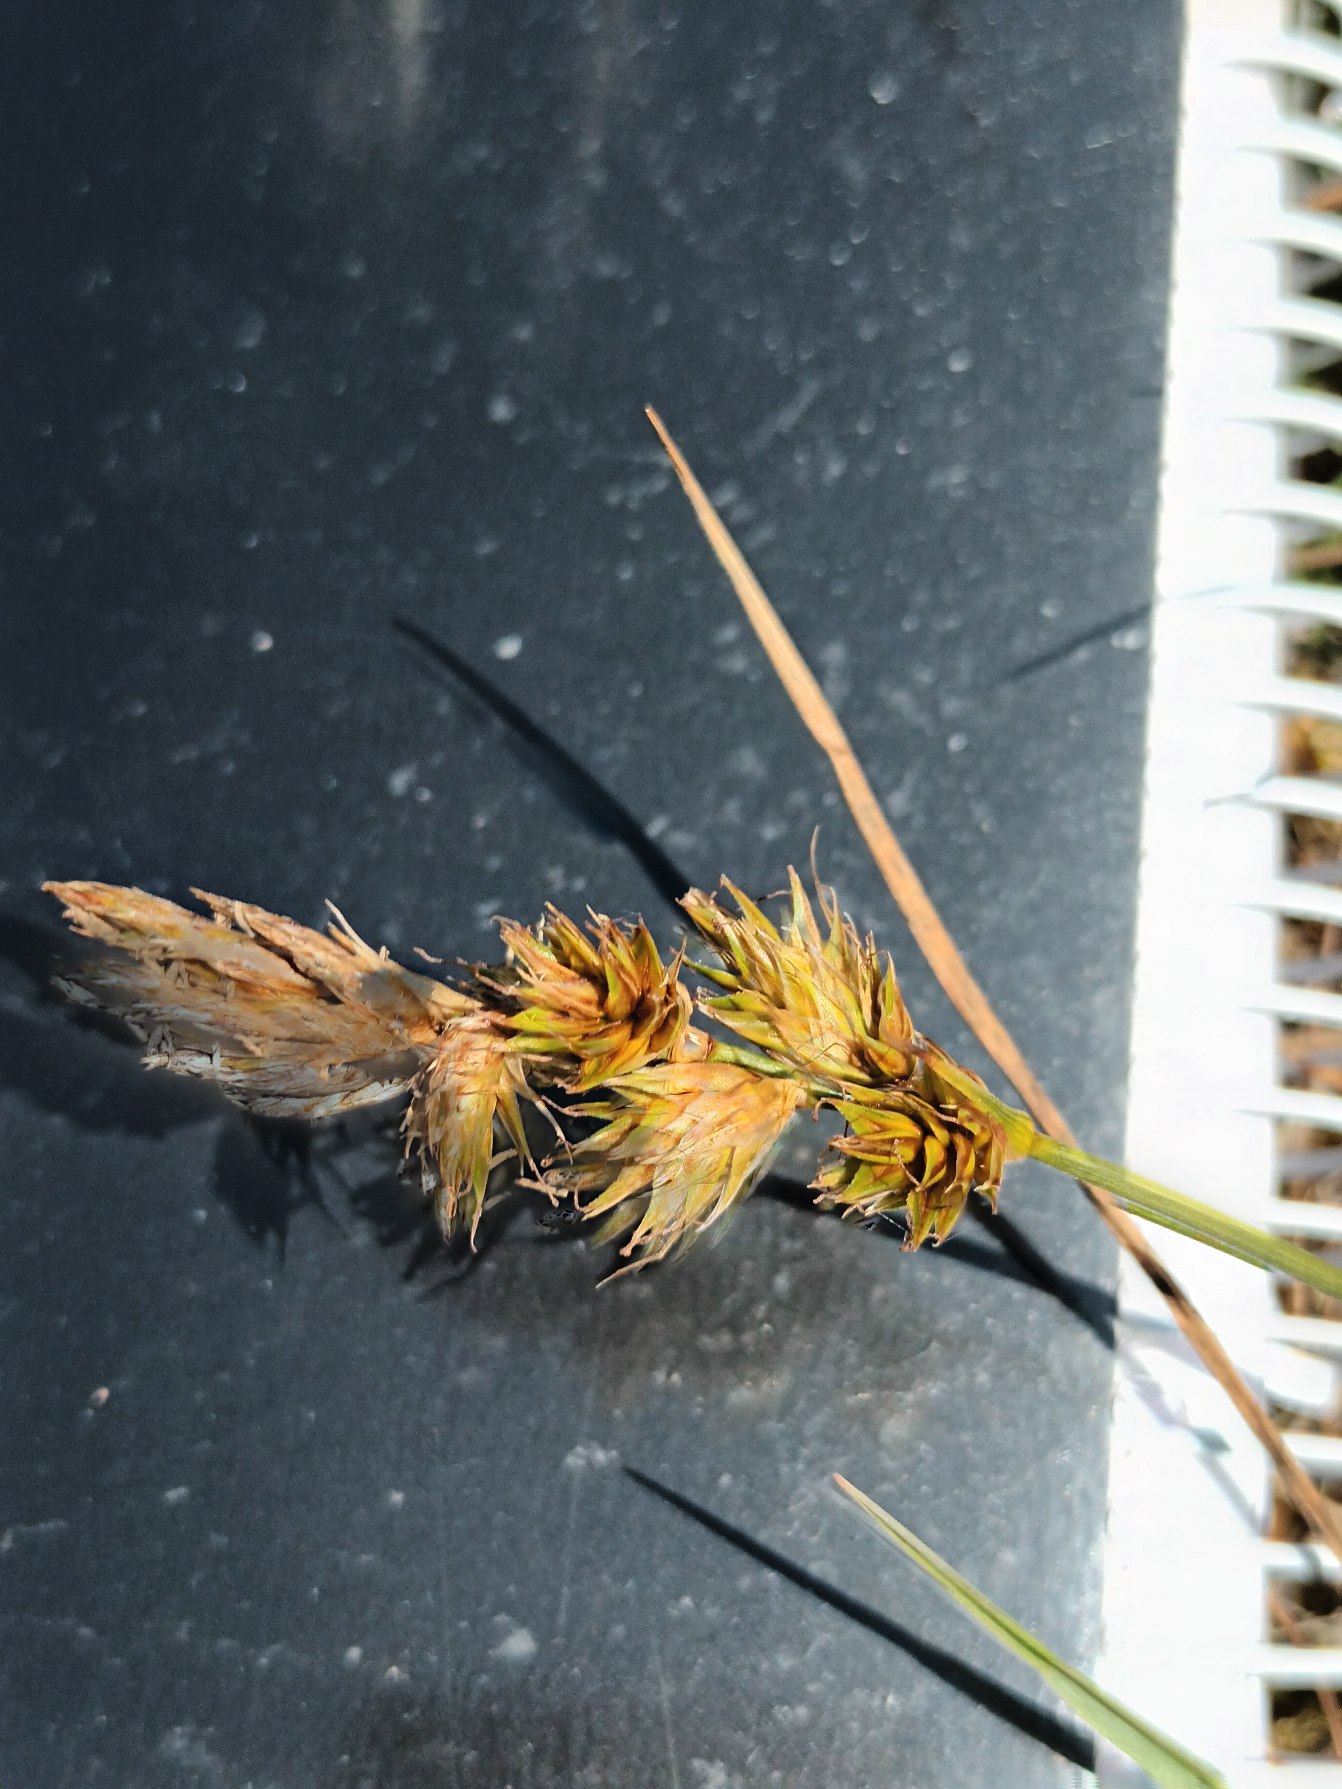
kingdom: Plantae
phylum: Tracheophyta
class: Liliopsida
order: Poales
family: Cyperaceae
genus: Carex
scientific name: Carex arenaria
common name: Sand-star
